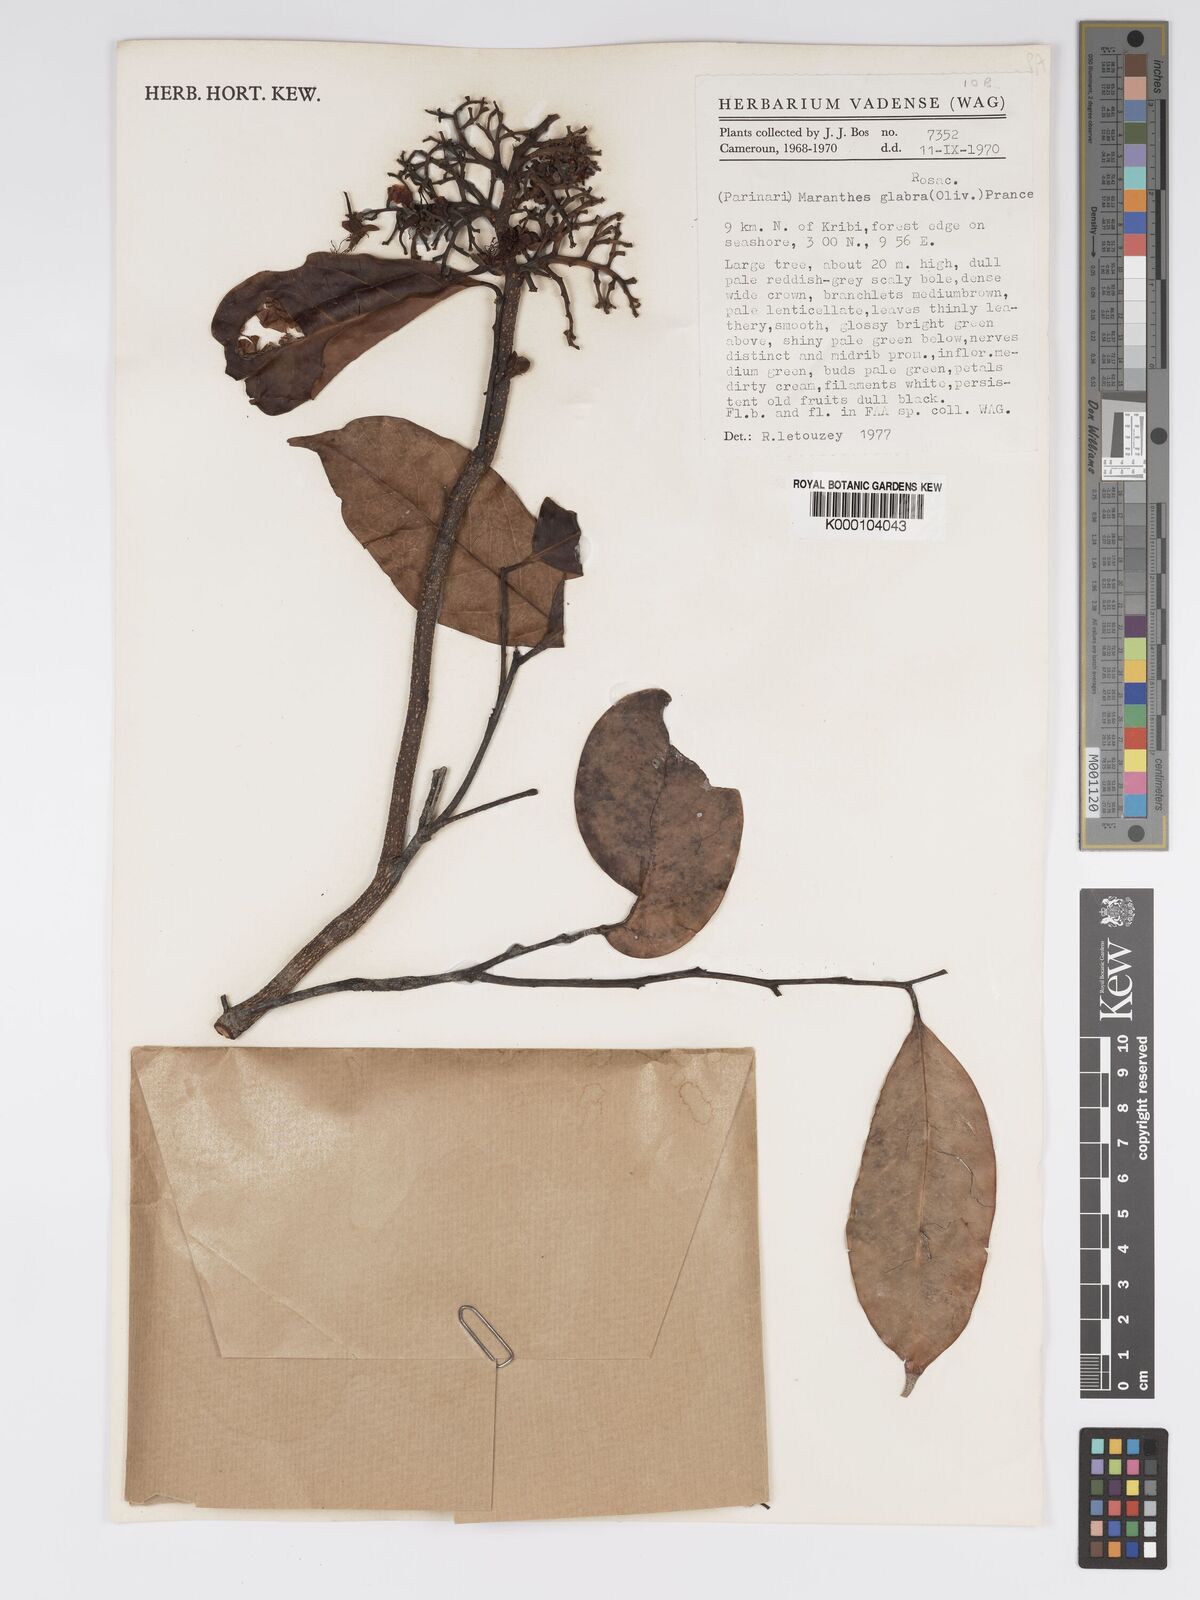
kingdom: Plantae
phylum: Tracheophyta
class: Magnoliopsida
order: Malpighiales
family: Chrysobalanaceae
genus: Maranthes
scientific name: Maranthes glabra
